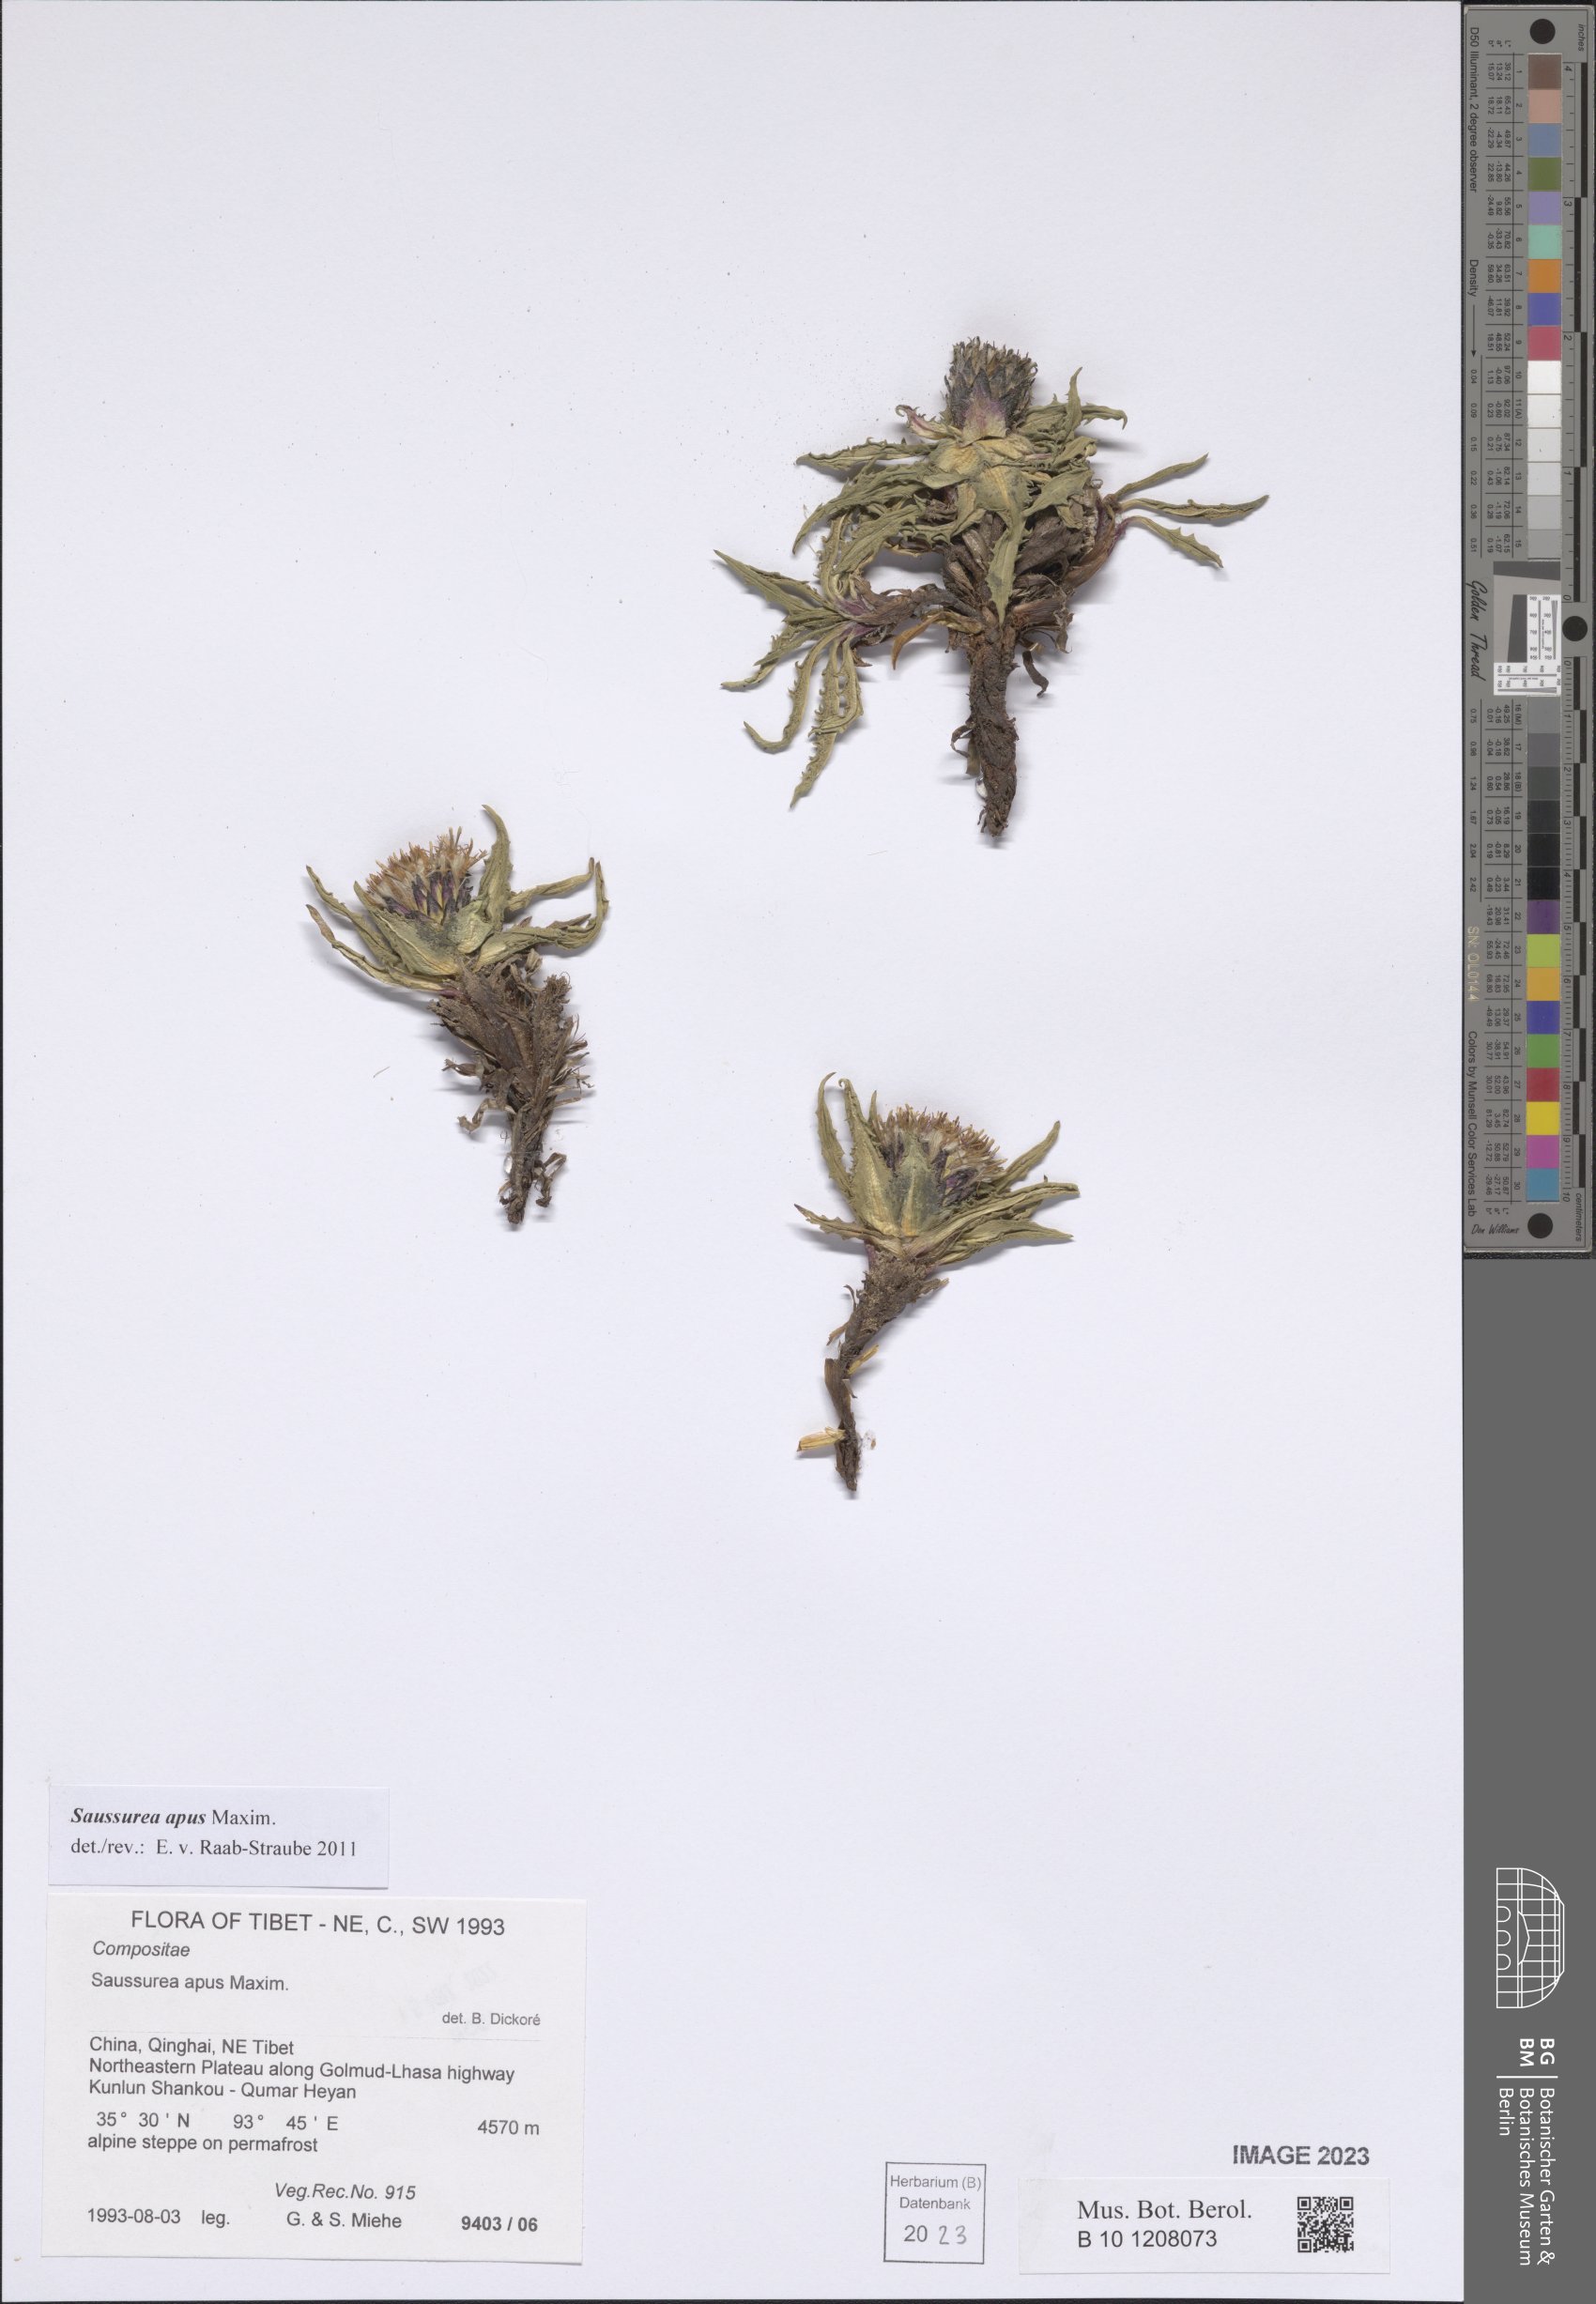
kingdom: Plantae
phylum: Tracheophyta
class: Magnoliopsida
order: Asterales
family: Asteraceae
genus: Saussurea
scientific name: Saussurea apus
